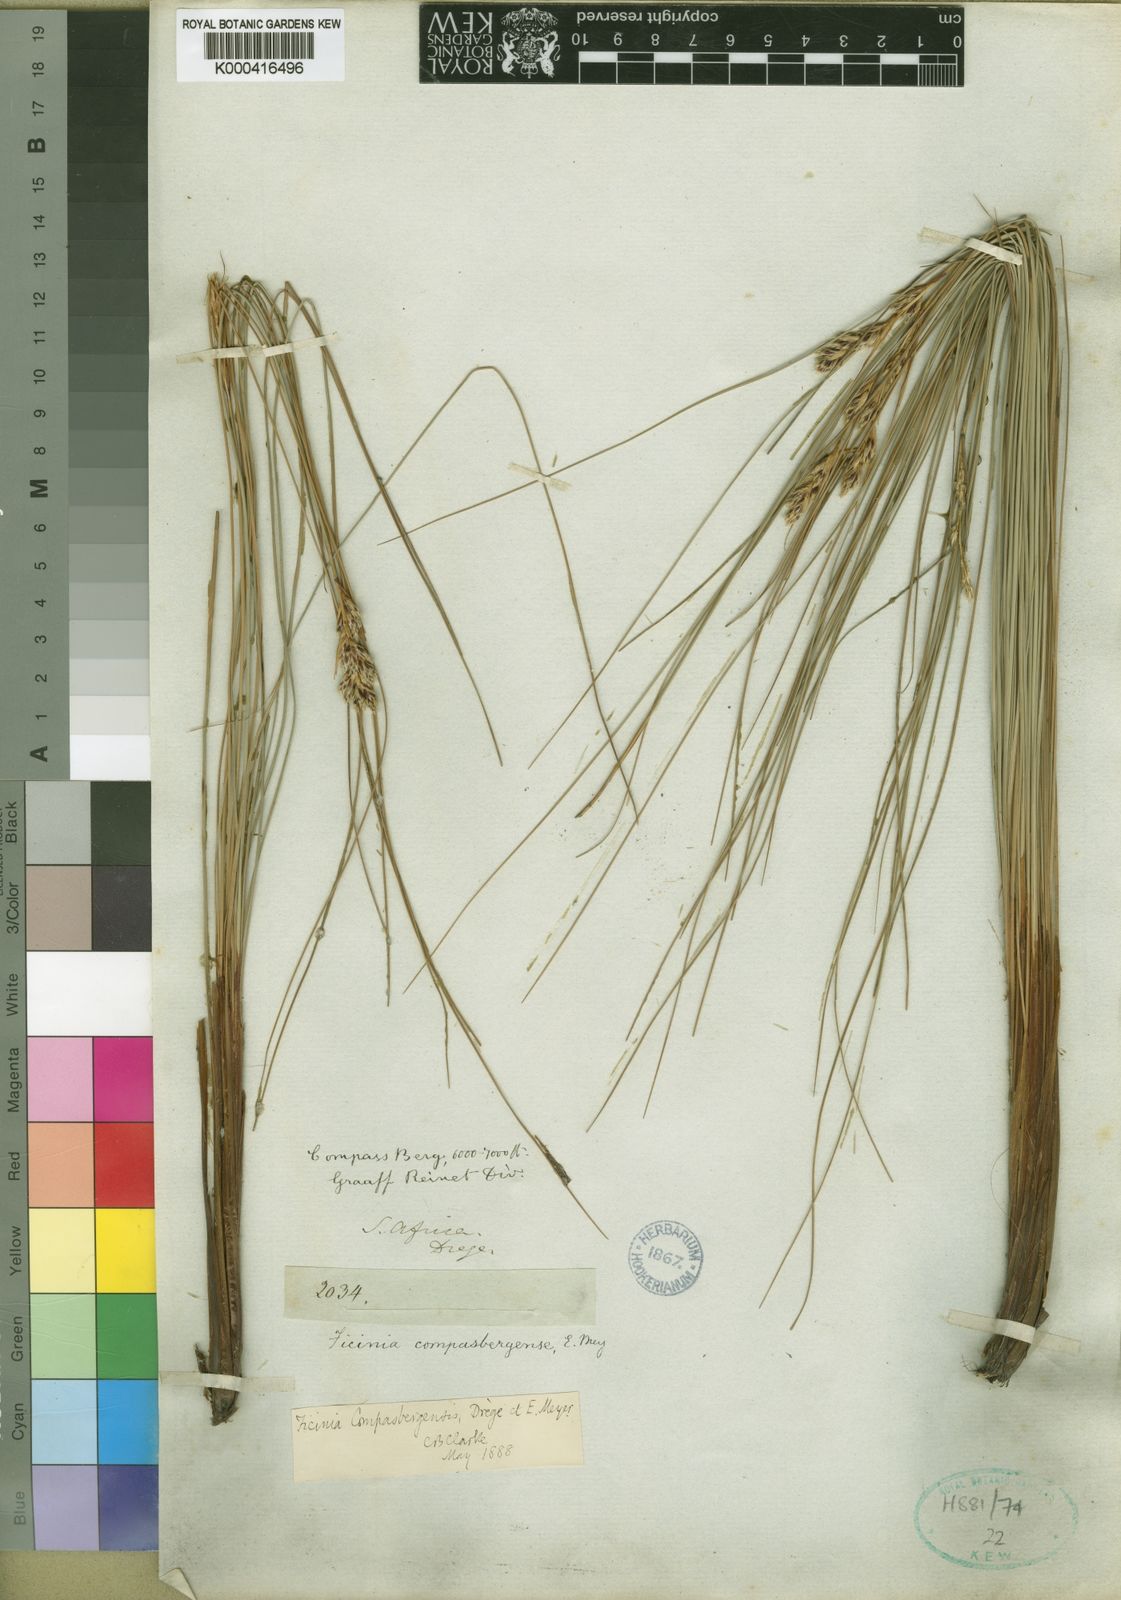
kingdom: Plantae
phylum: Tracheophyta
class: Liliopsida
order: Poales
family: Cyperaceae
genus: Ficinia
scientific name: Ficinia
